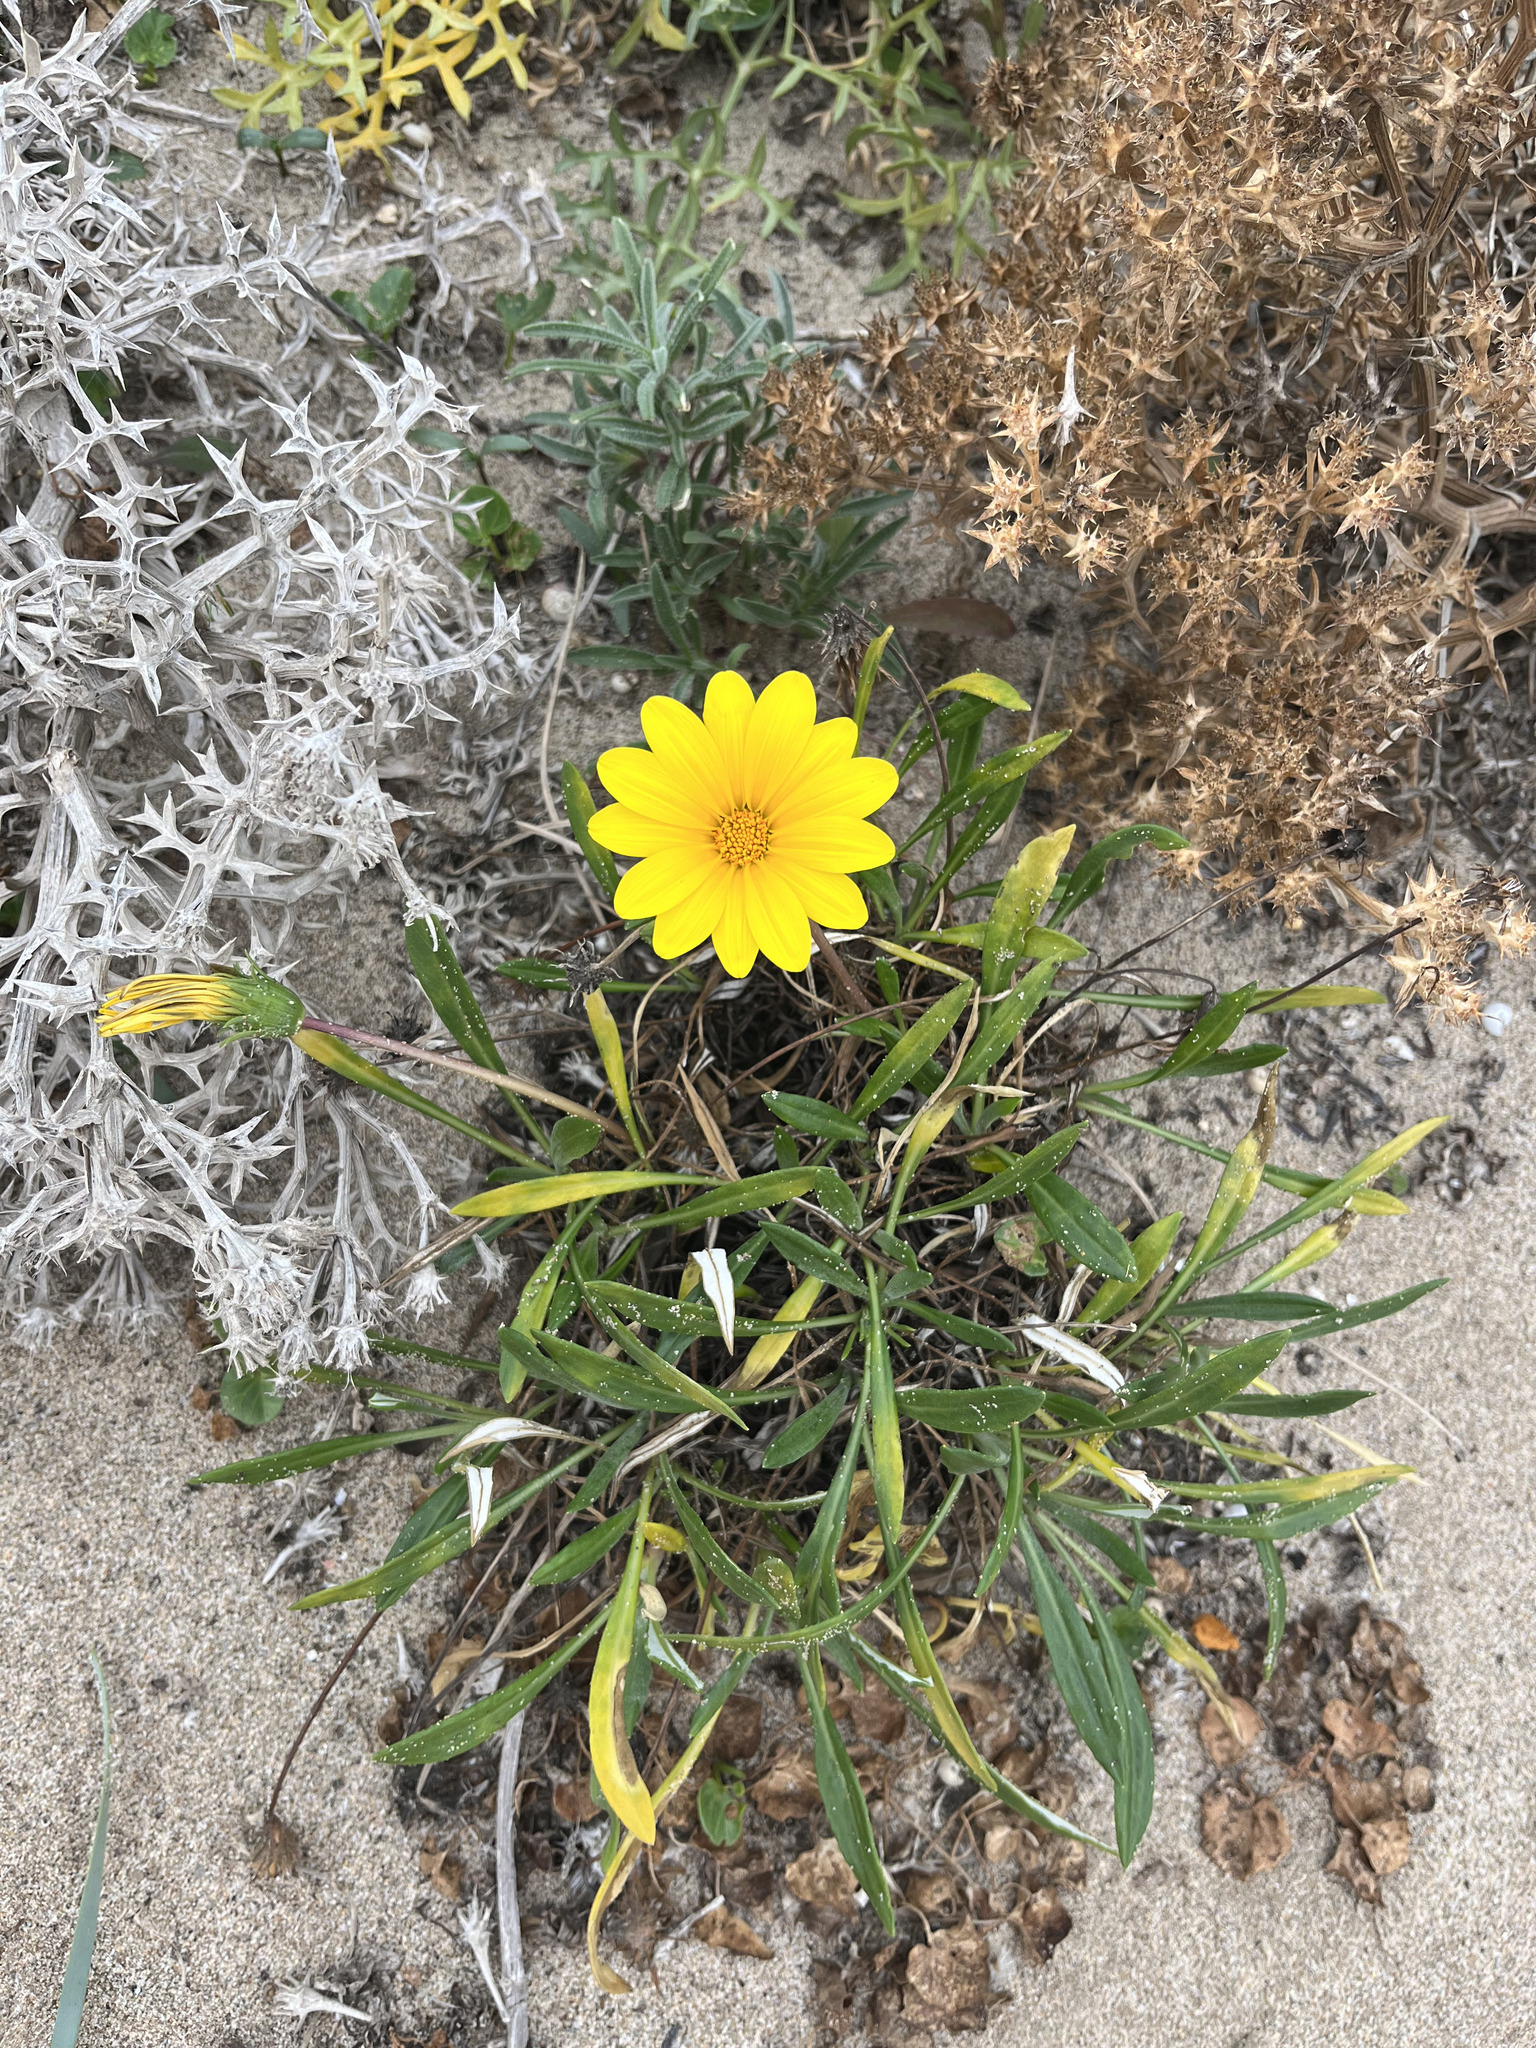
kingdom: Plantae
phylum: Tracheophyta
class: Magnoliopsida
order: Asterales
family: Asteraceae
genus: Gazania
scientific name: Gazania rigens
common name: Treasureflower
